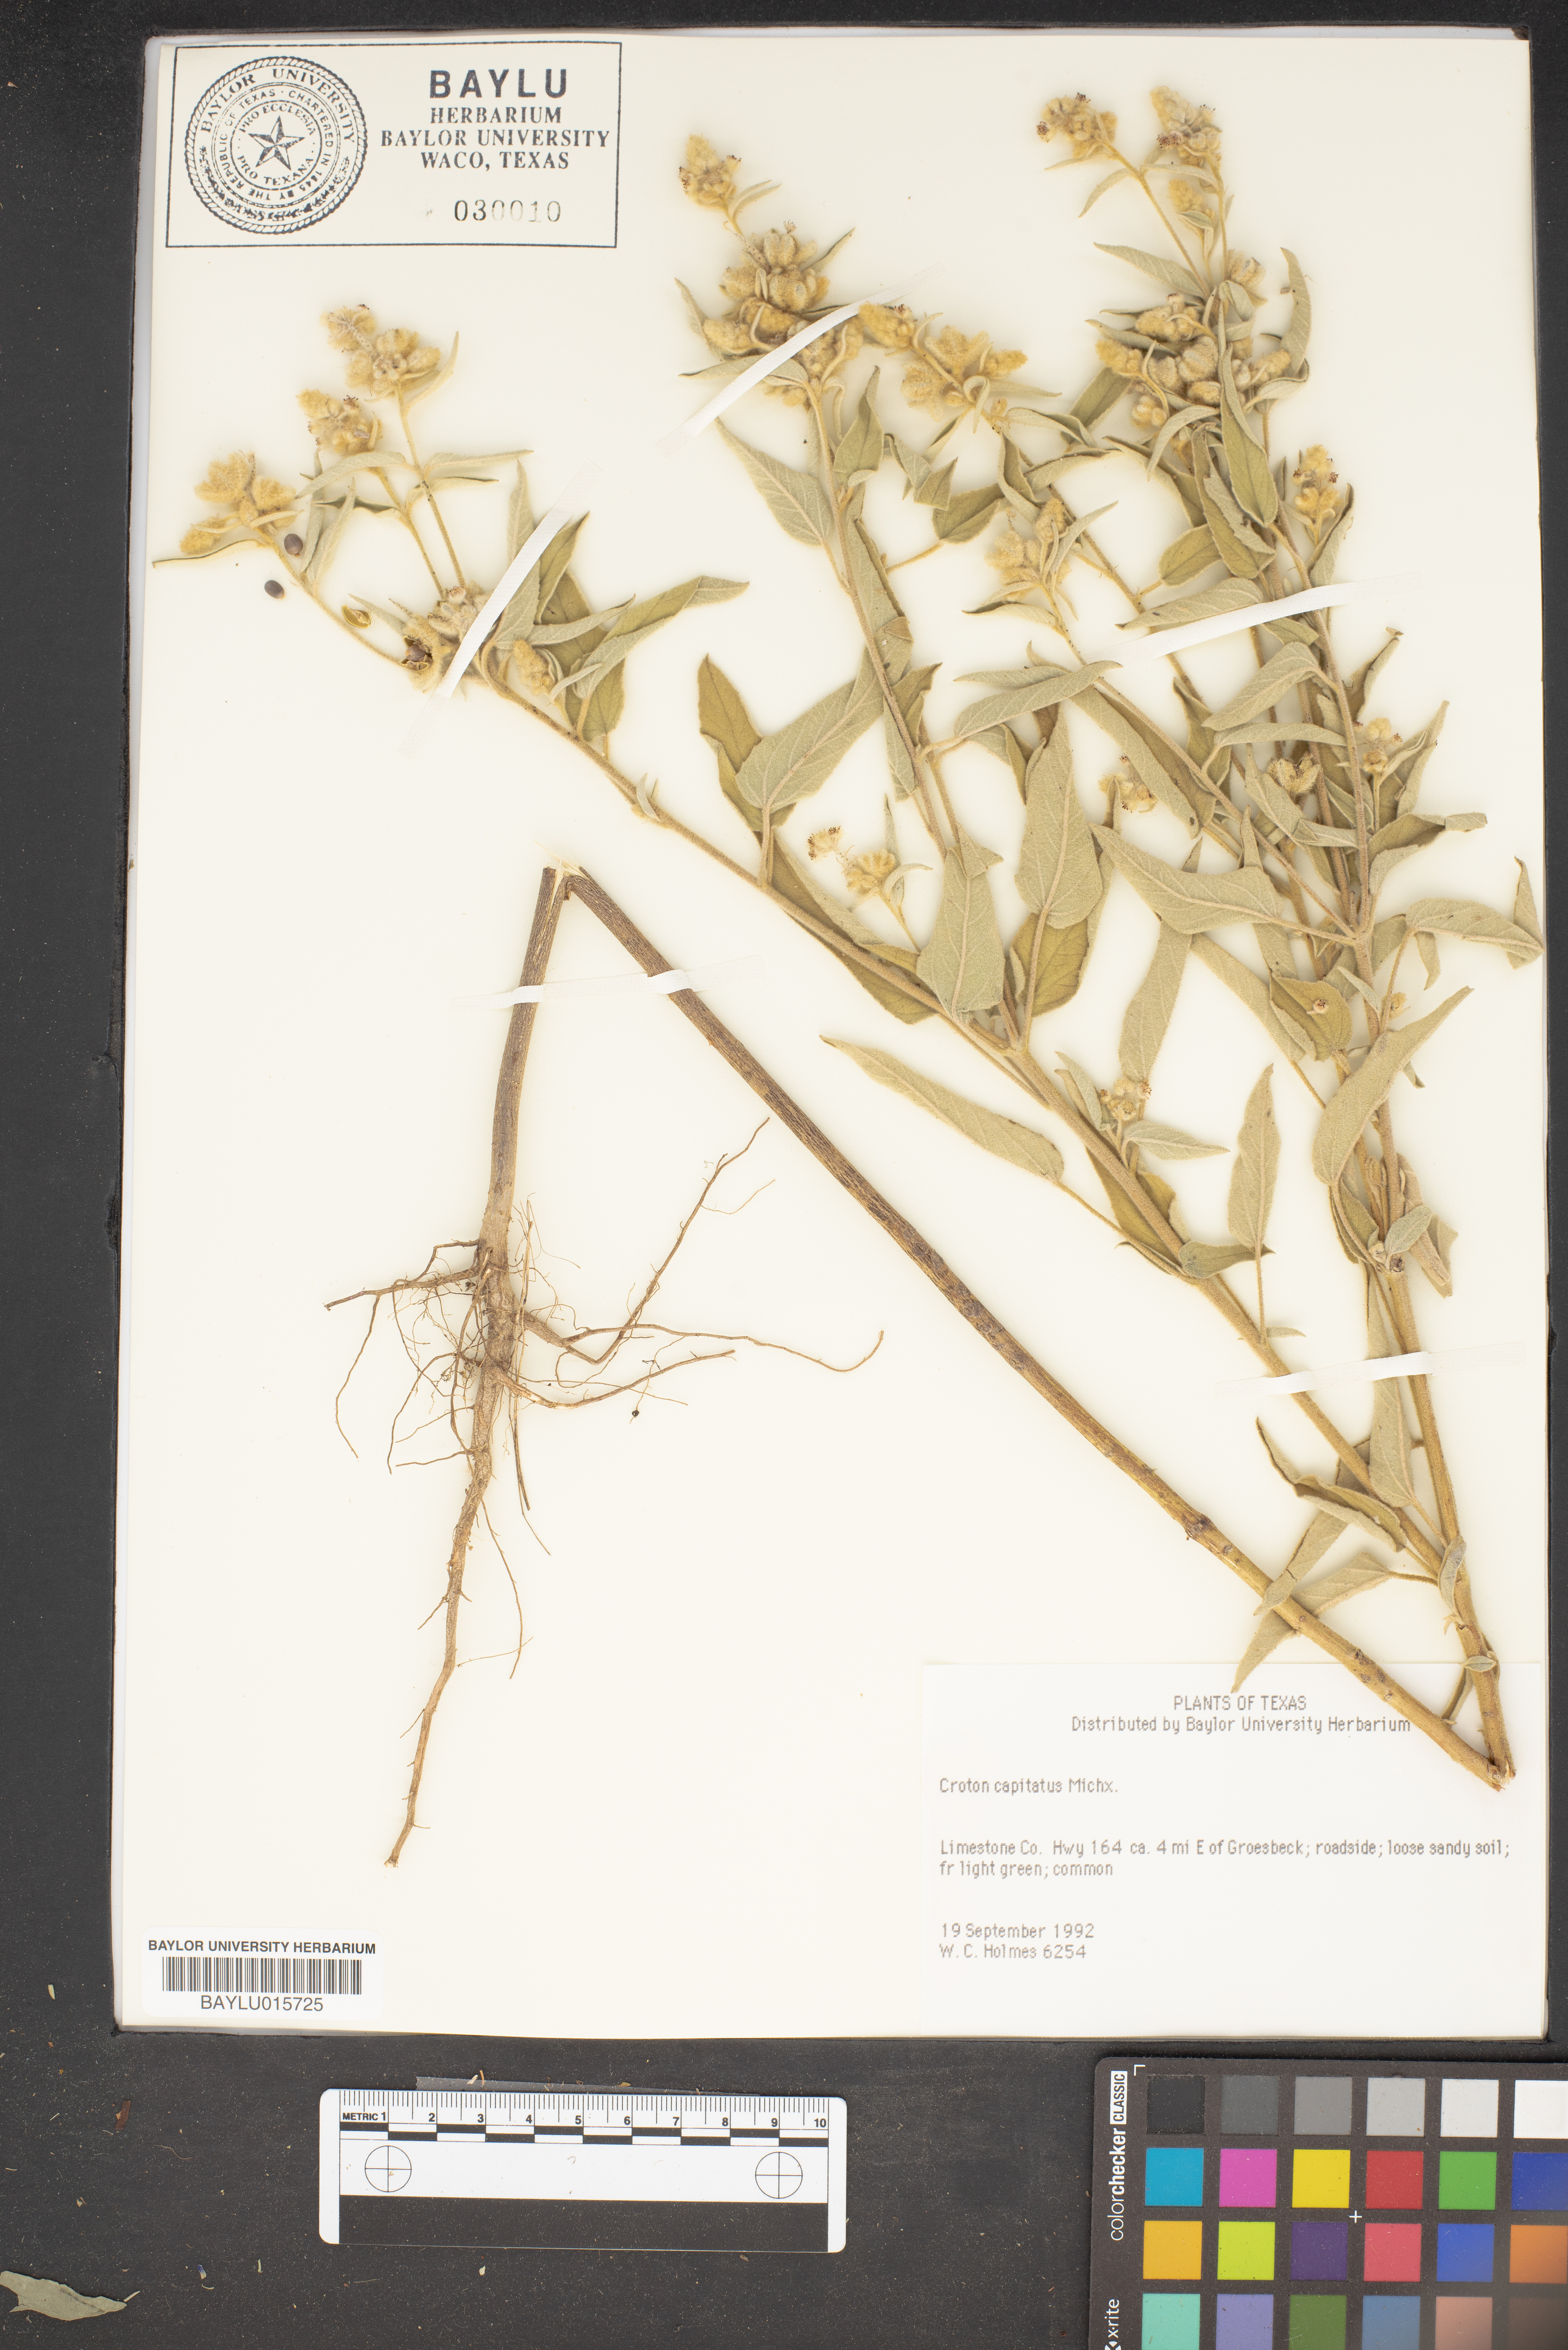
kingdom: Plantae
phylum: Tracheophyta
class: Magnoliopsida
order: Malpighiales
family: Euphorbiaceae
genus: Croton
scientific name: Croton capitatus
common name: Woolly croton
